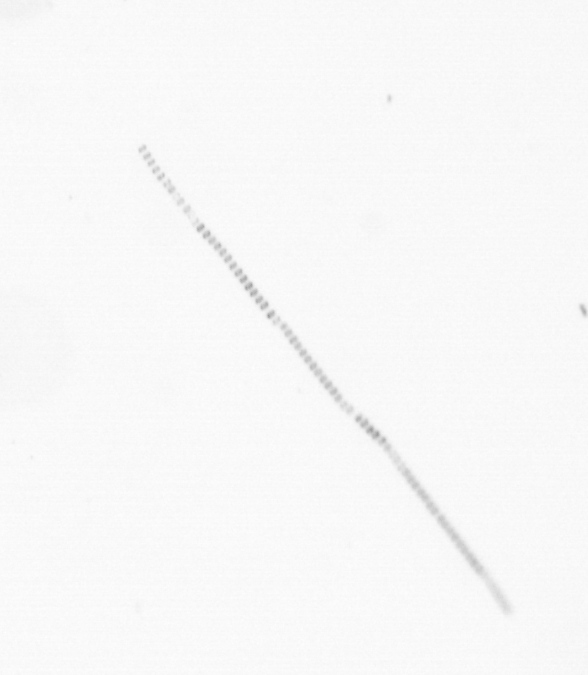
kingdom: Chromista
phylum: Ochrophyta
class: Bacillariophyceae
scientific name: Bacillariophyceae
